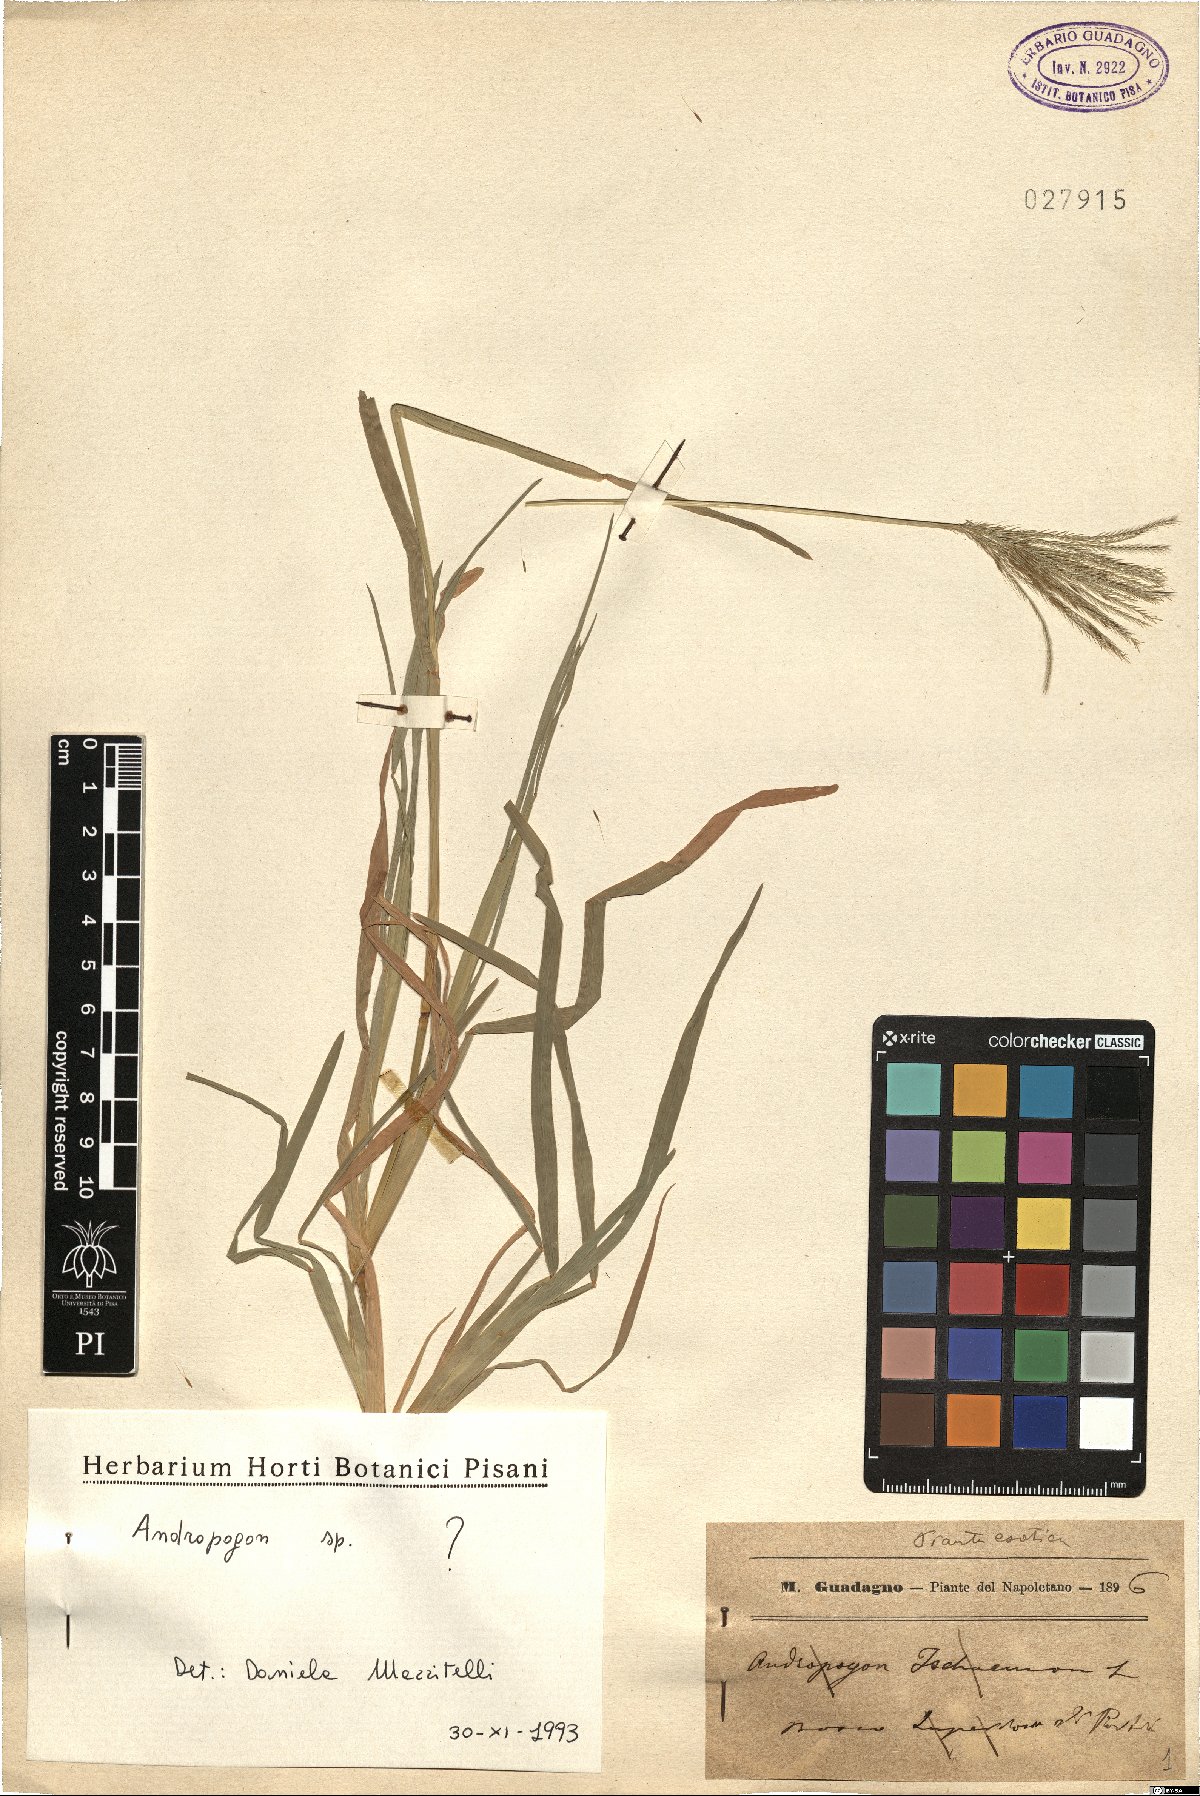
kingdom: Plantae
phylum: Tracheophyta
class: Liliopsida
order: Poales
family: Poaceae
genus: Andropogon
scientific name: Andropogon
